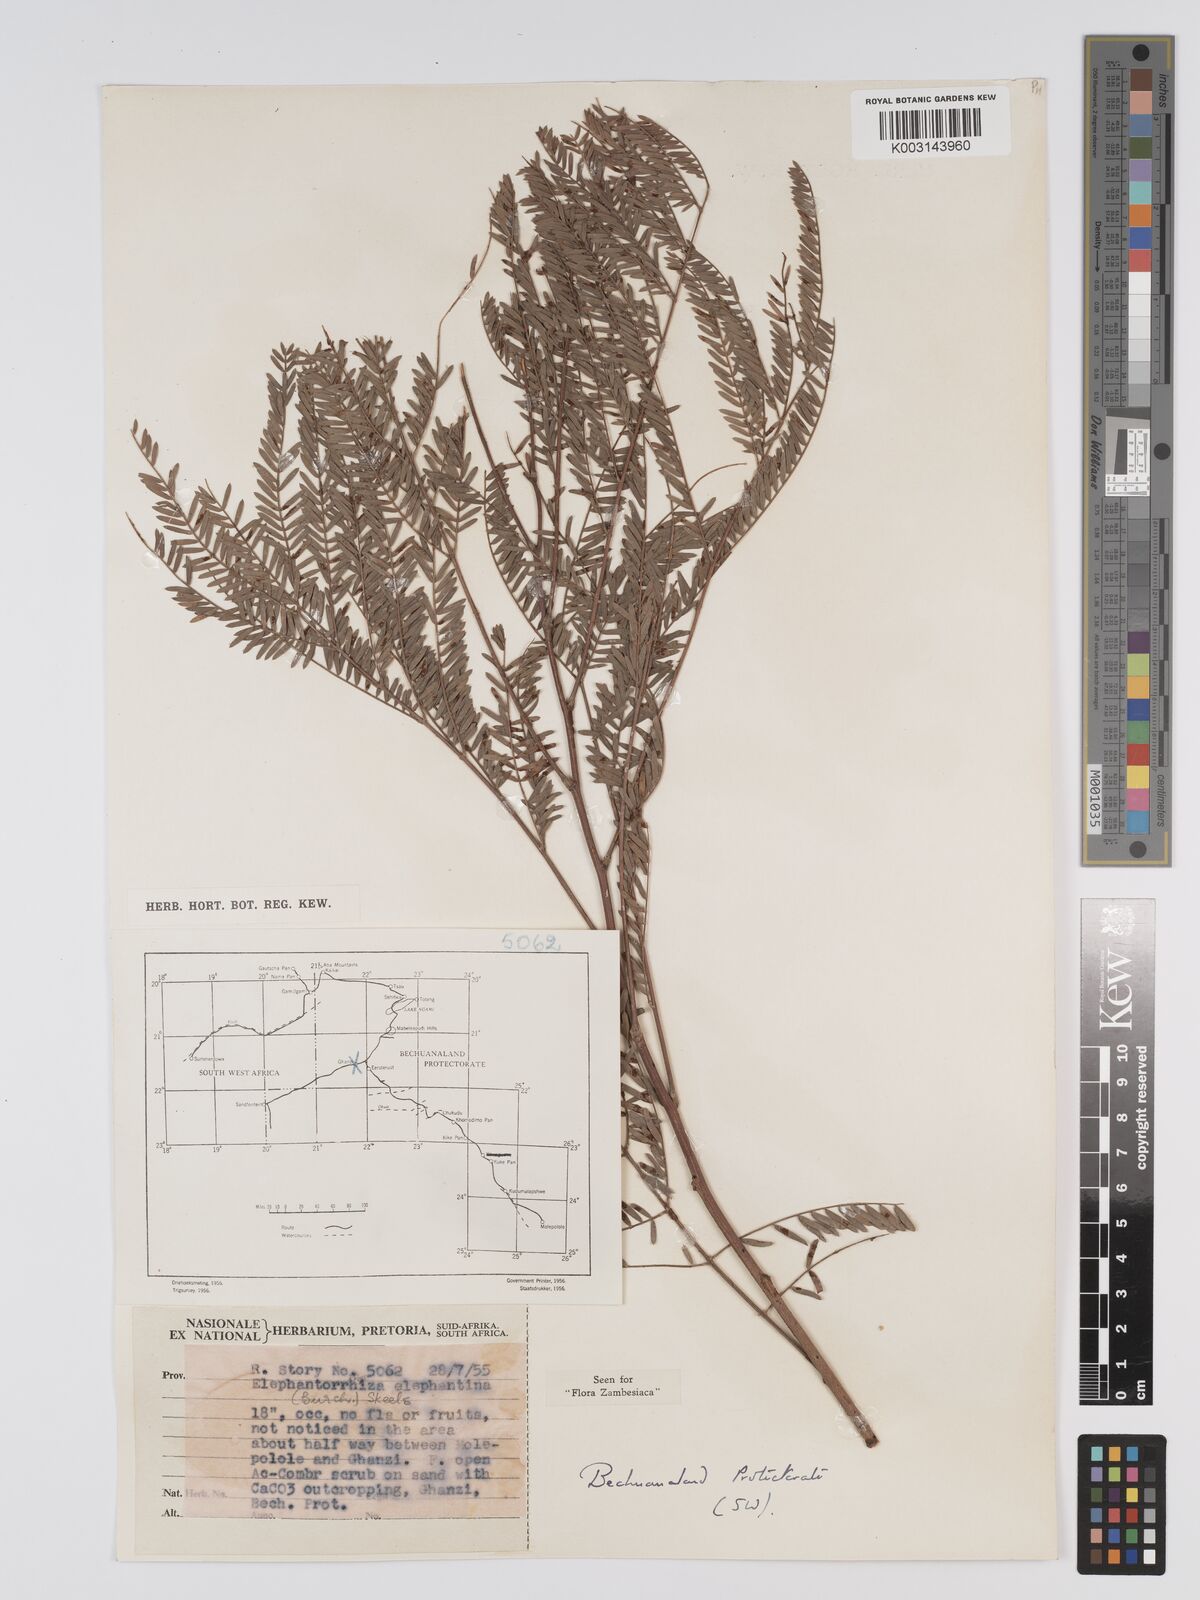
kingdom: Plantae
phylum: Tracheophyta
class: Magnoliopsida
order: Fabales
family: Fabaceae
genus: Elephantorrhiza
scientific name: Elephantorrhiza elephantina
